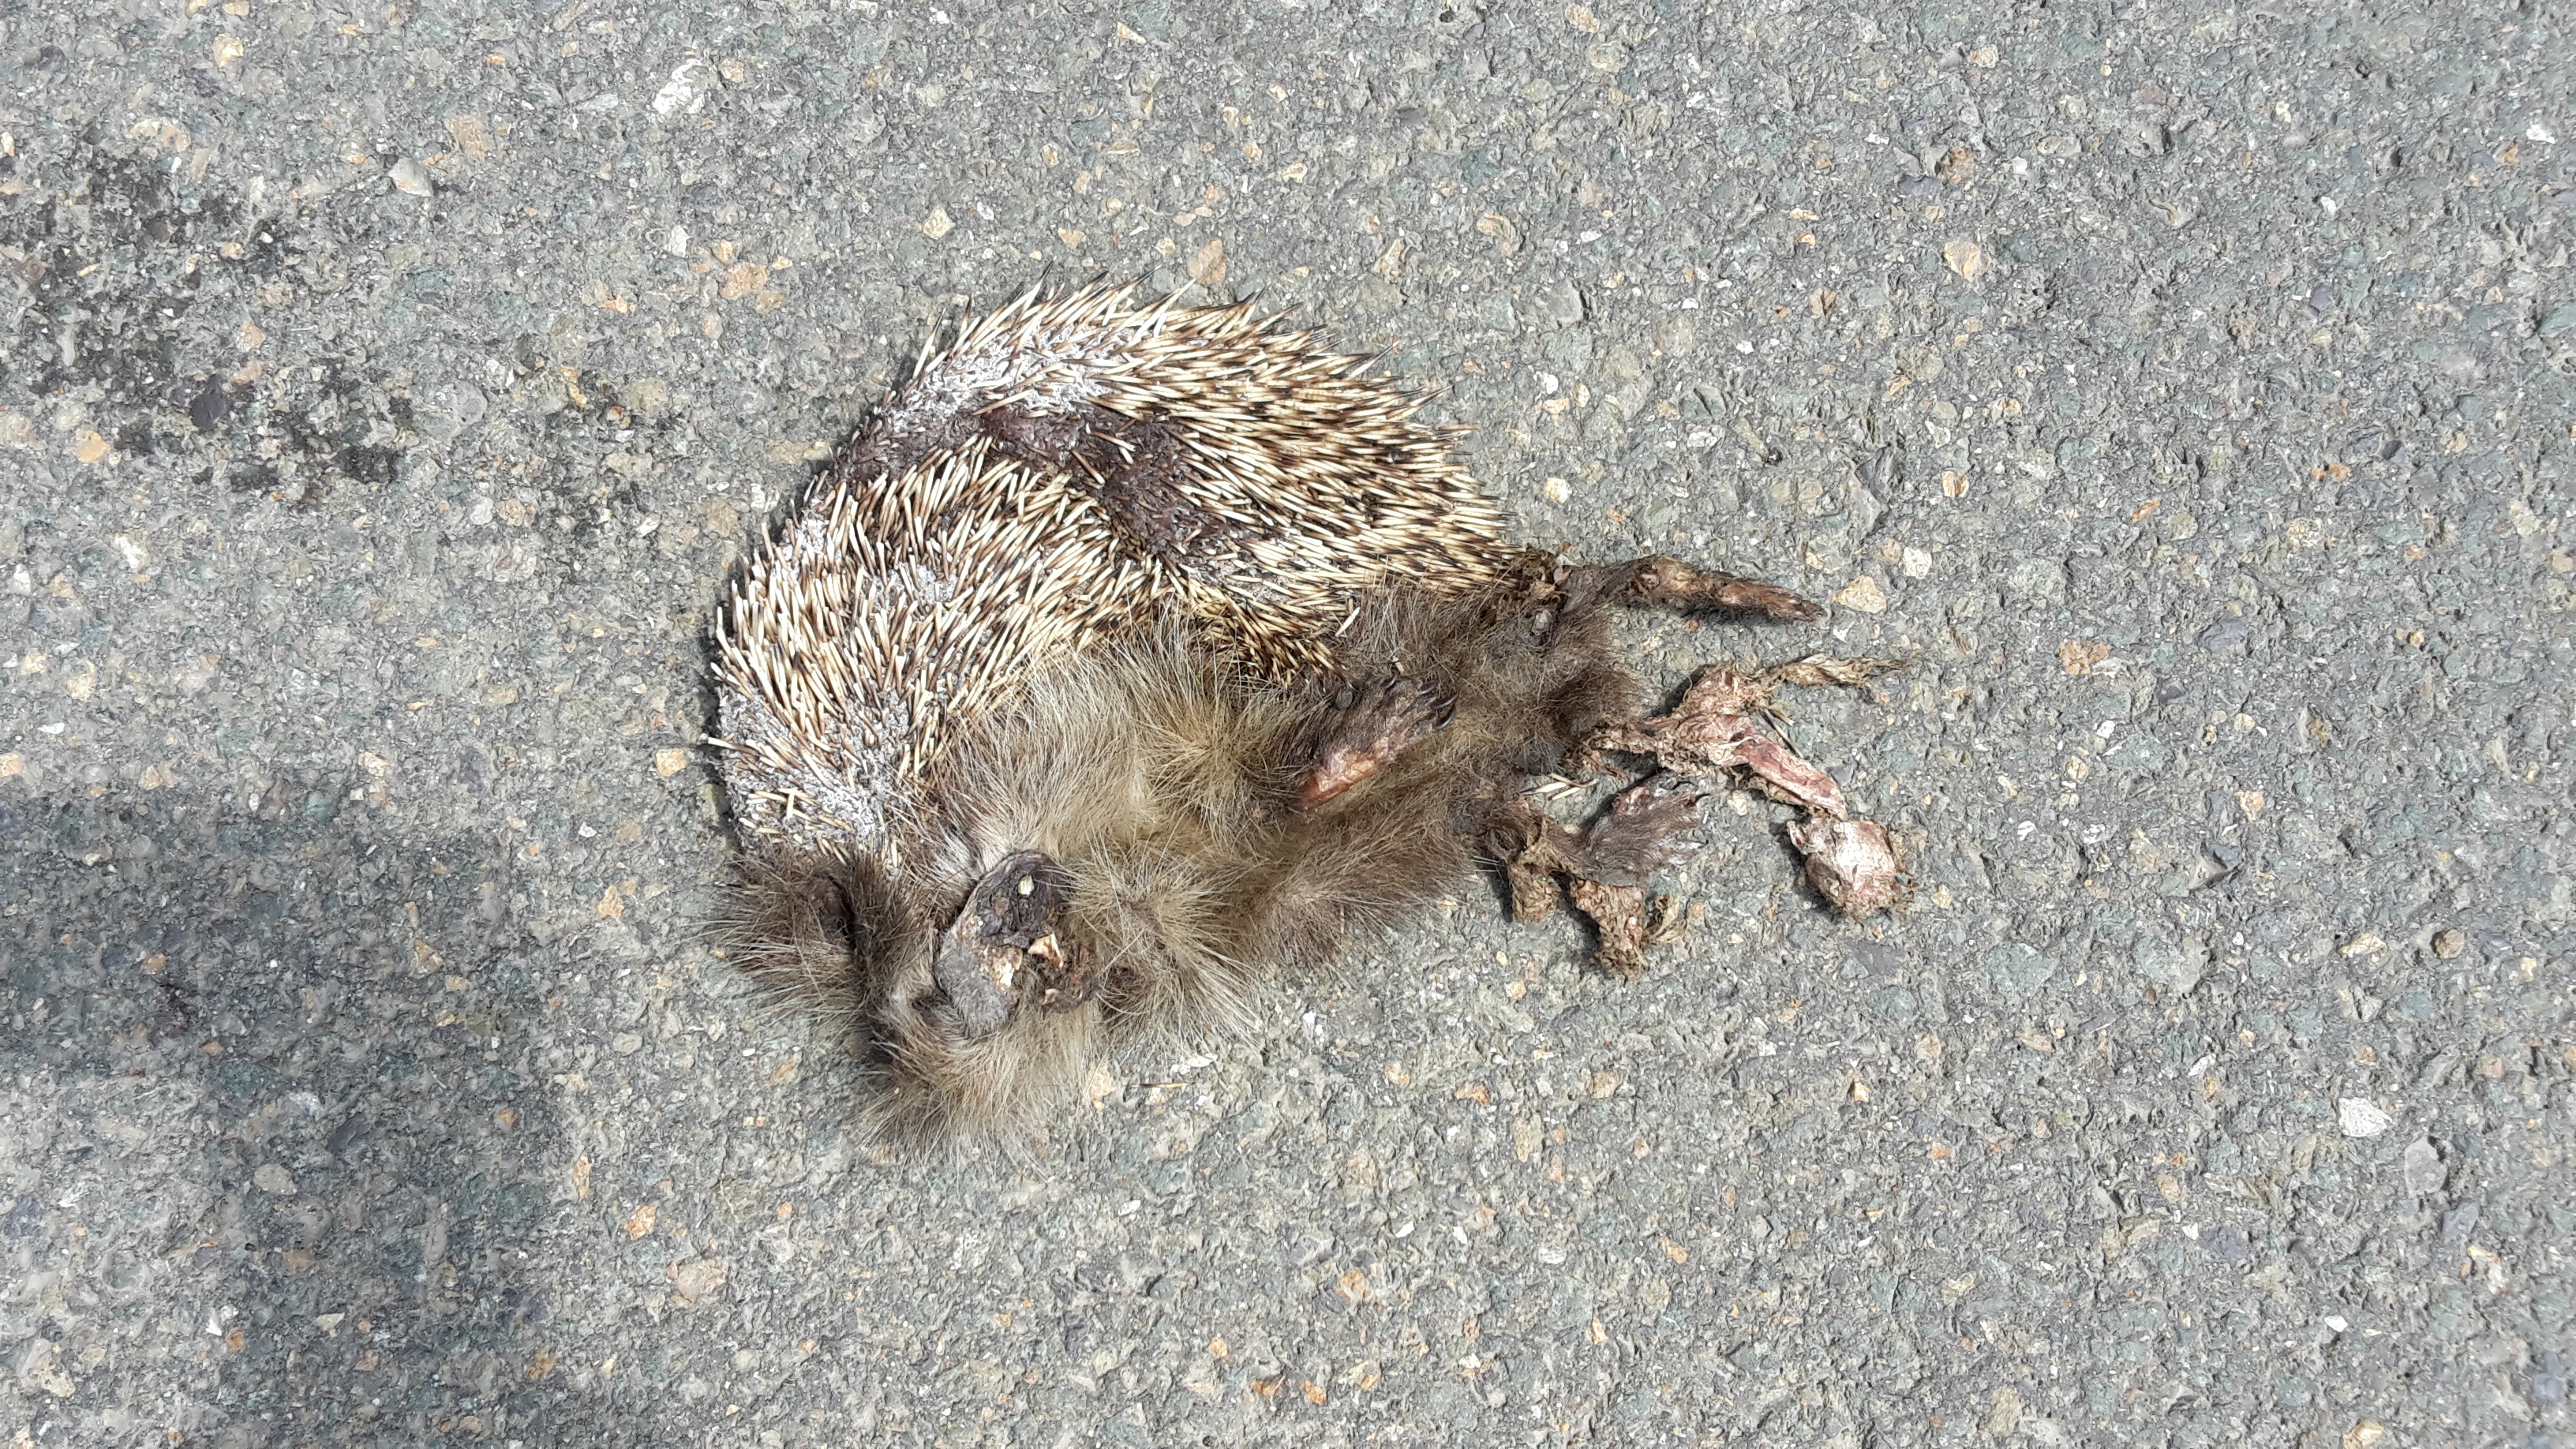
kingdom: Animalia
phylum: Chordata
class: Mammalia
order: Erinaceomorpha
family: Erinaceidae
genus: Erinaceus
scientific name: Erinaceus
